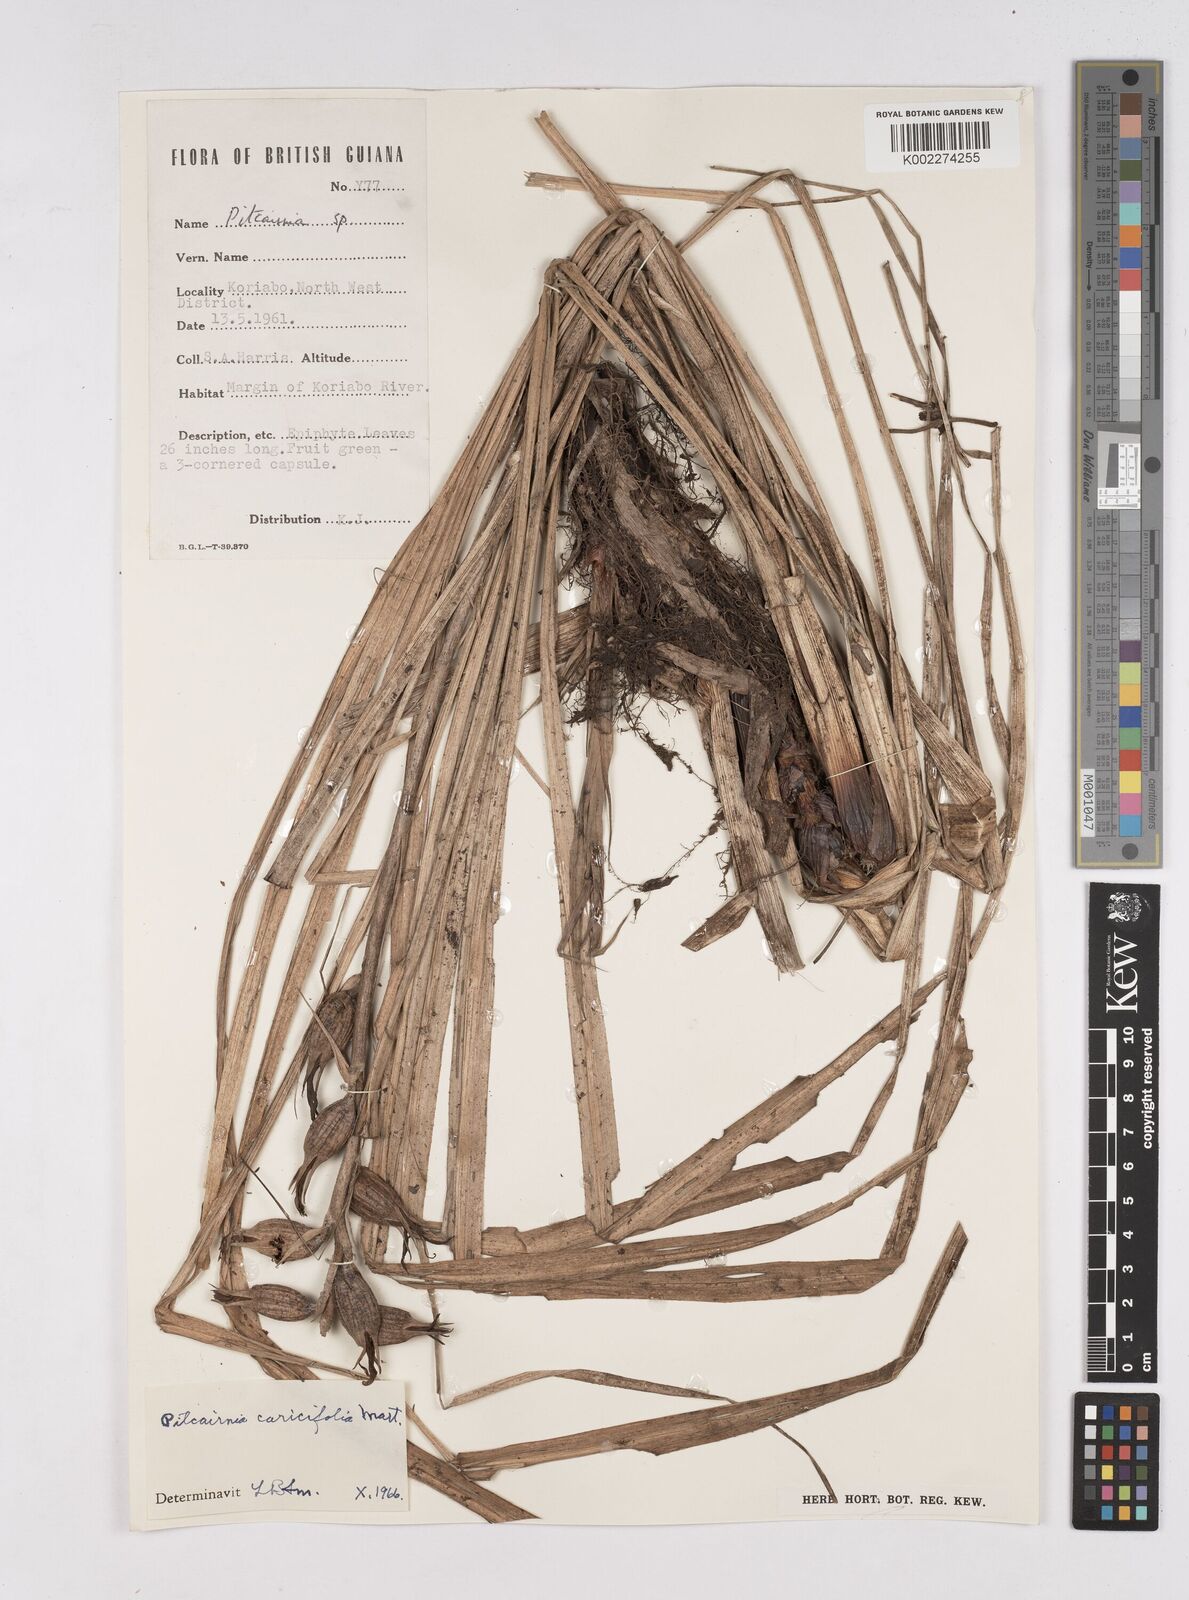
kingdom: Plantae
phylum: Tracheophyta
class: Liliopsida
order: Poales
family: Bromeliaceae
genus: Pitcairnia
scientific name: Pitcairnia caricifolia
